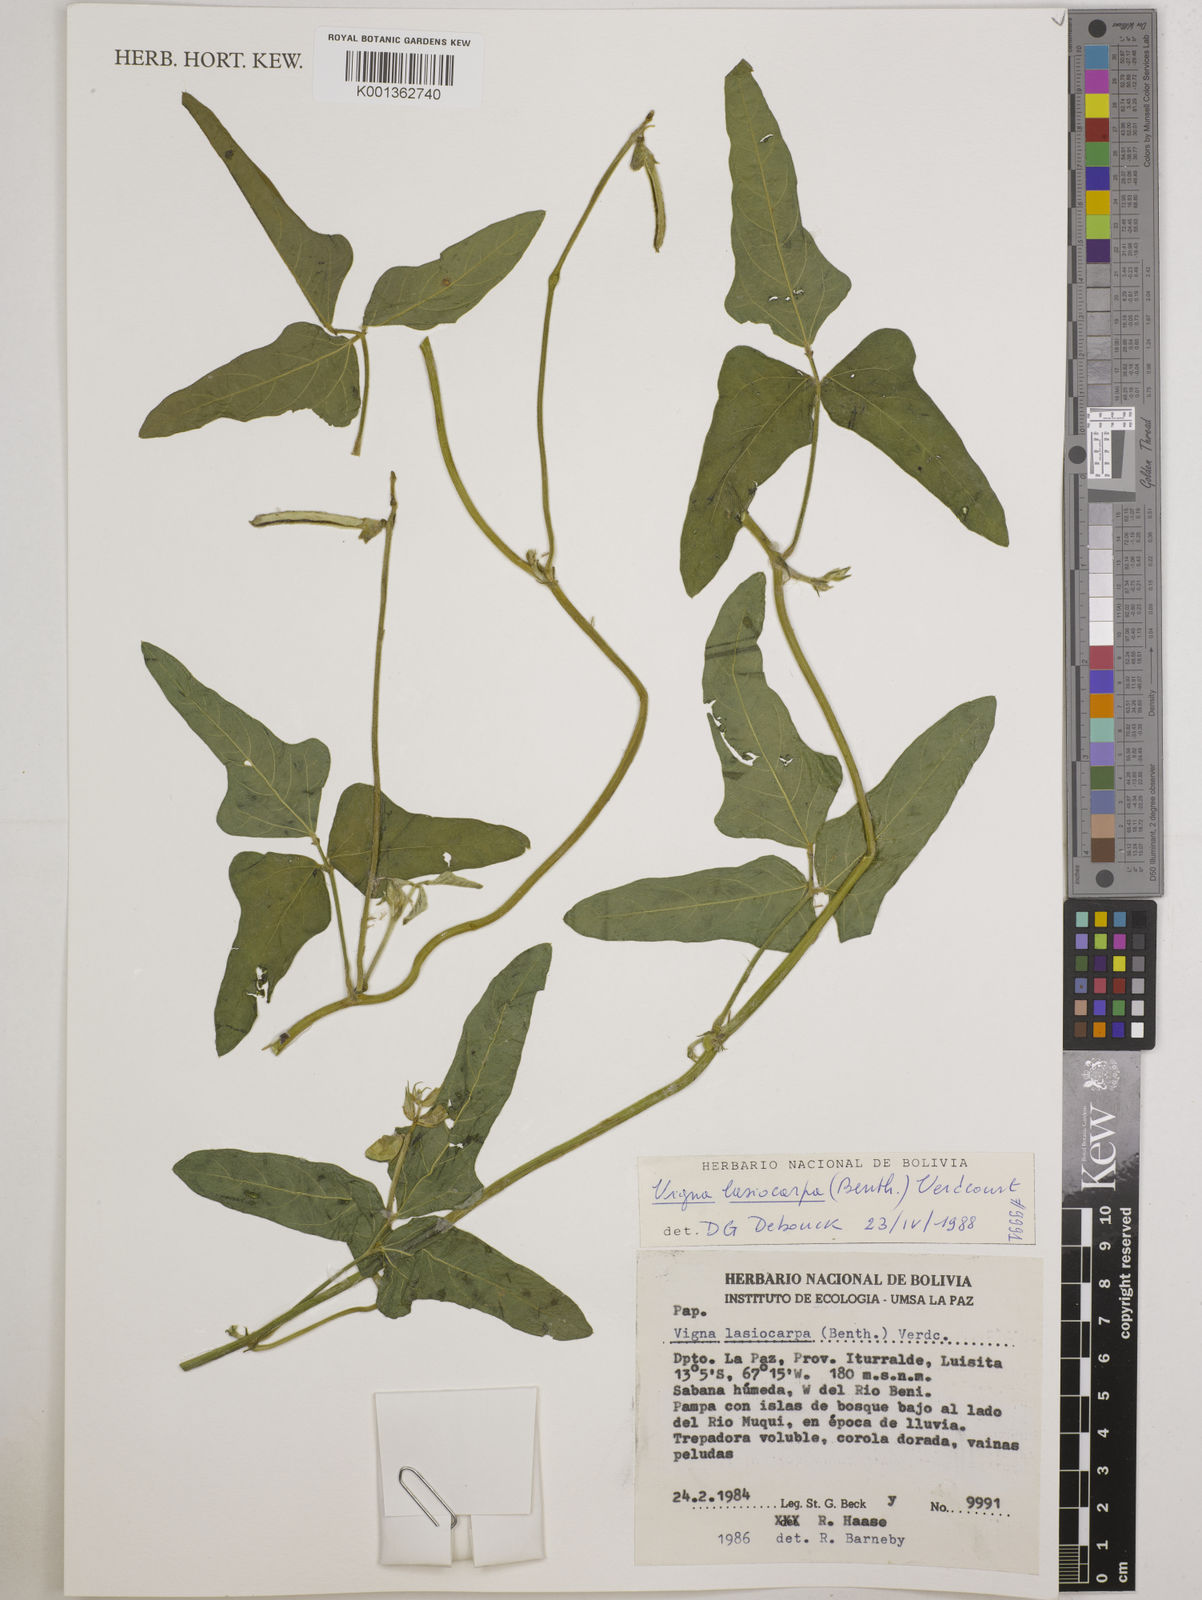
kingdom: Plantae
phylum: Tracheophyta
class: Magnoliopsida
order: Fabales
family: Fabaceae
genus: Vigna
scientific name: Vigna lasiocarpa
